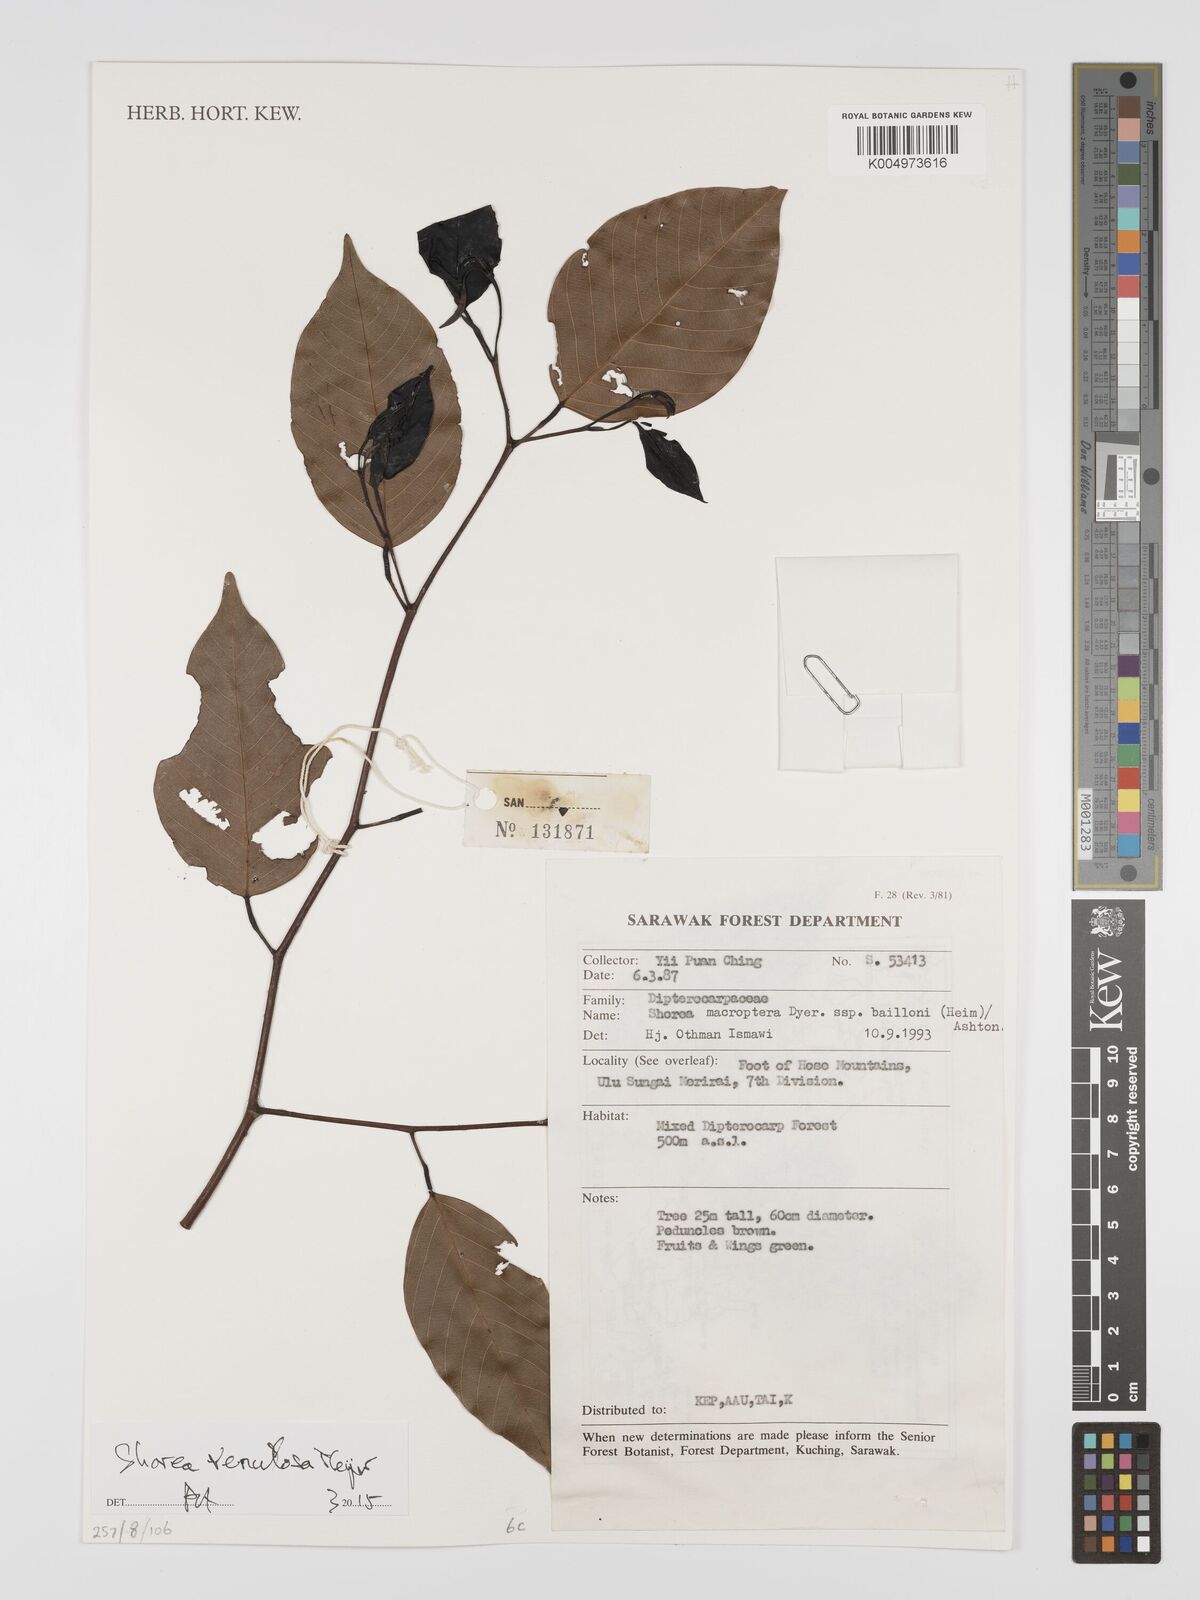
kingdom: Plantae
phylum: Tracheophyta
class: Magnoliopsida
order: Malvales
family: Dipterocarpaceae
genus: Shorea
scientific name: Shorea venulosa
